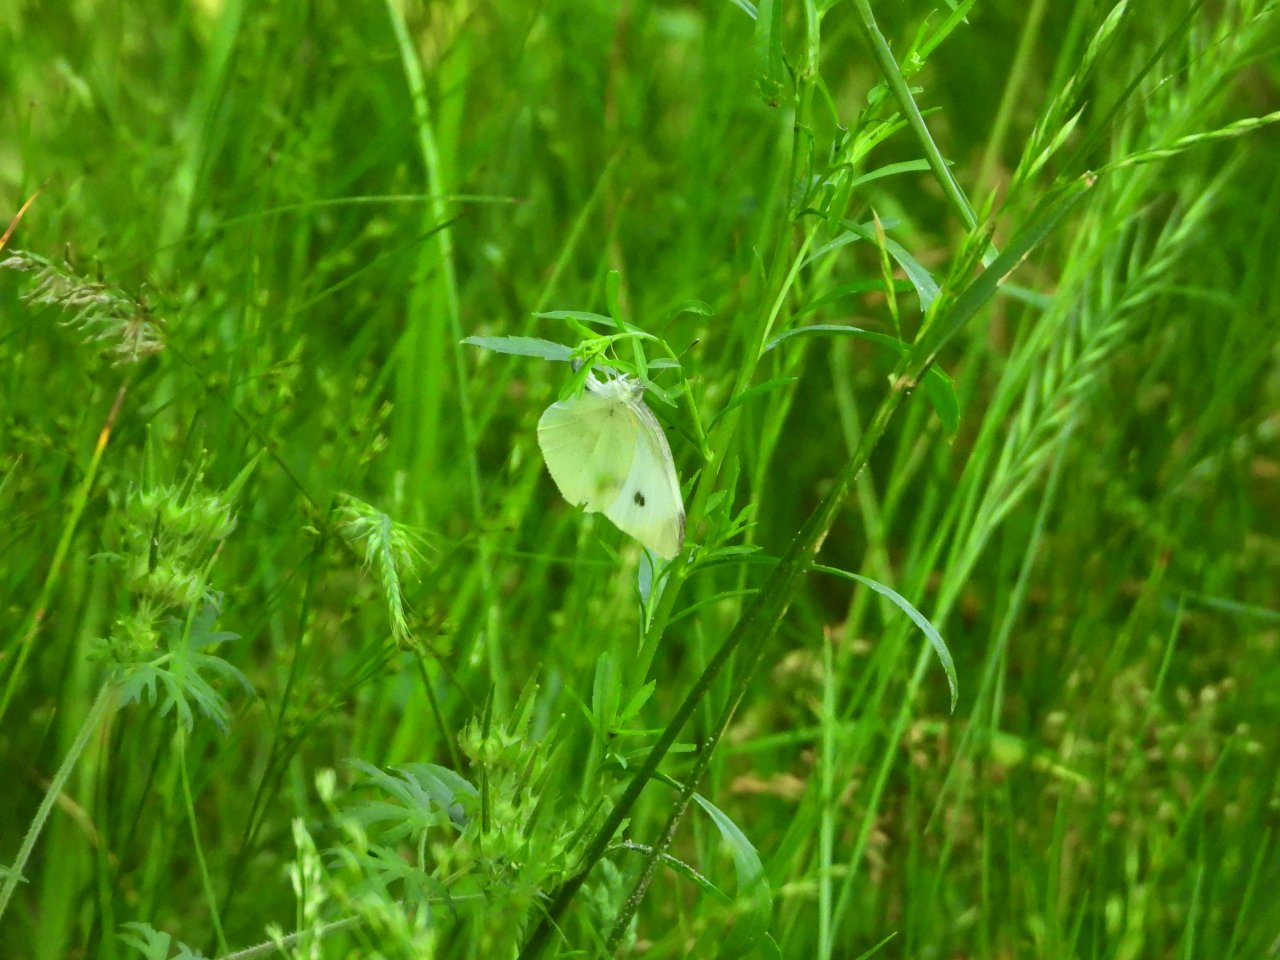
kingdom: Animalia
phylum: Arthropoda
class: Insecta
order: Lepidoptera
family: Pieridae
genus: Pieris
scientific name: Pieris rapae
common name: Cabbage White
